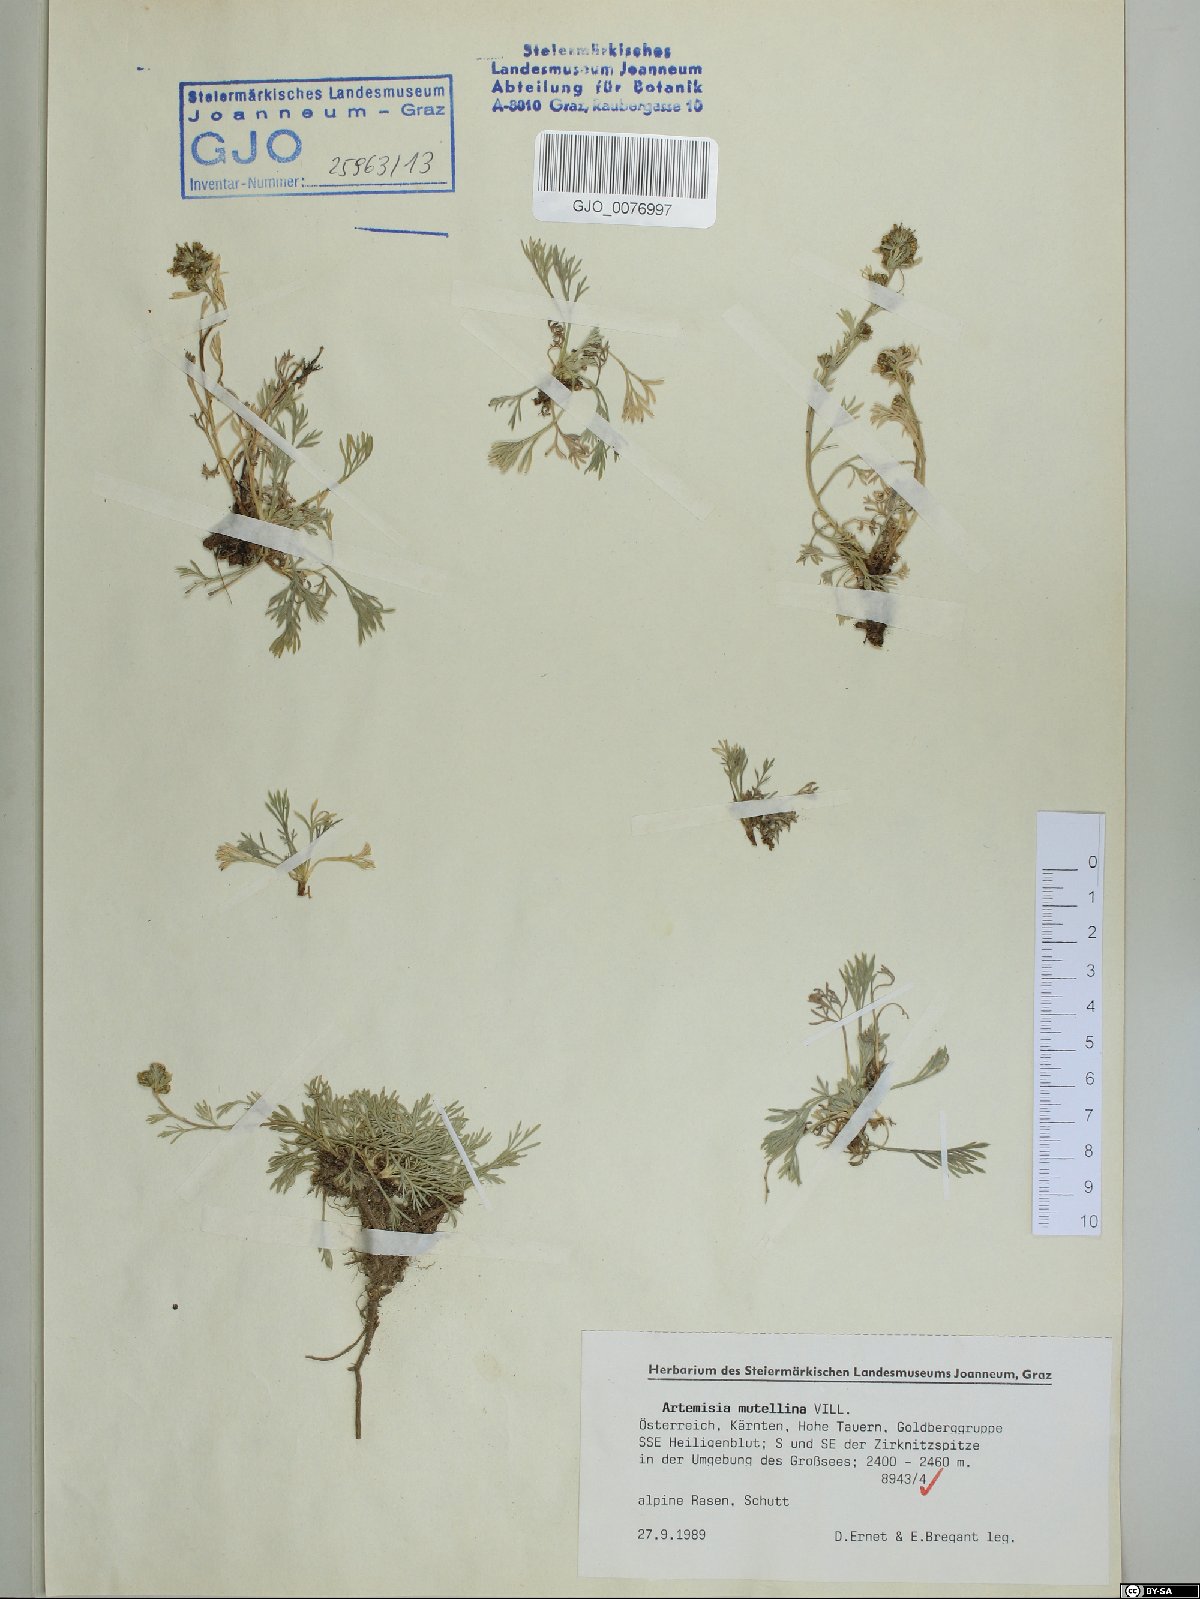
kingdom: Plantae
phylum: Tracheophyta
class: Magnoliopsida
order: Asterales
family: Asteraceae
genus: Artemisia
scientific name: Artemisia mutellina
